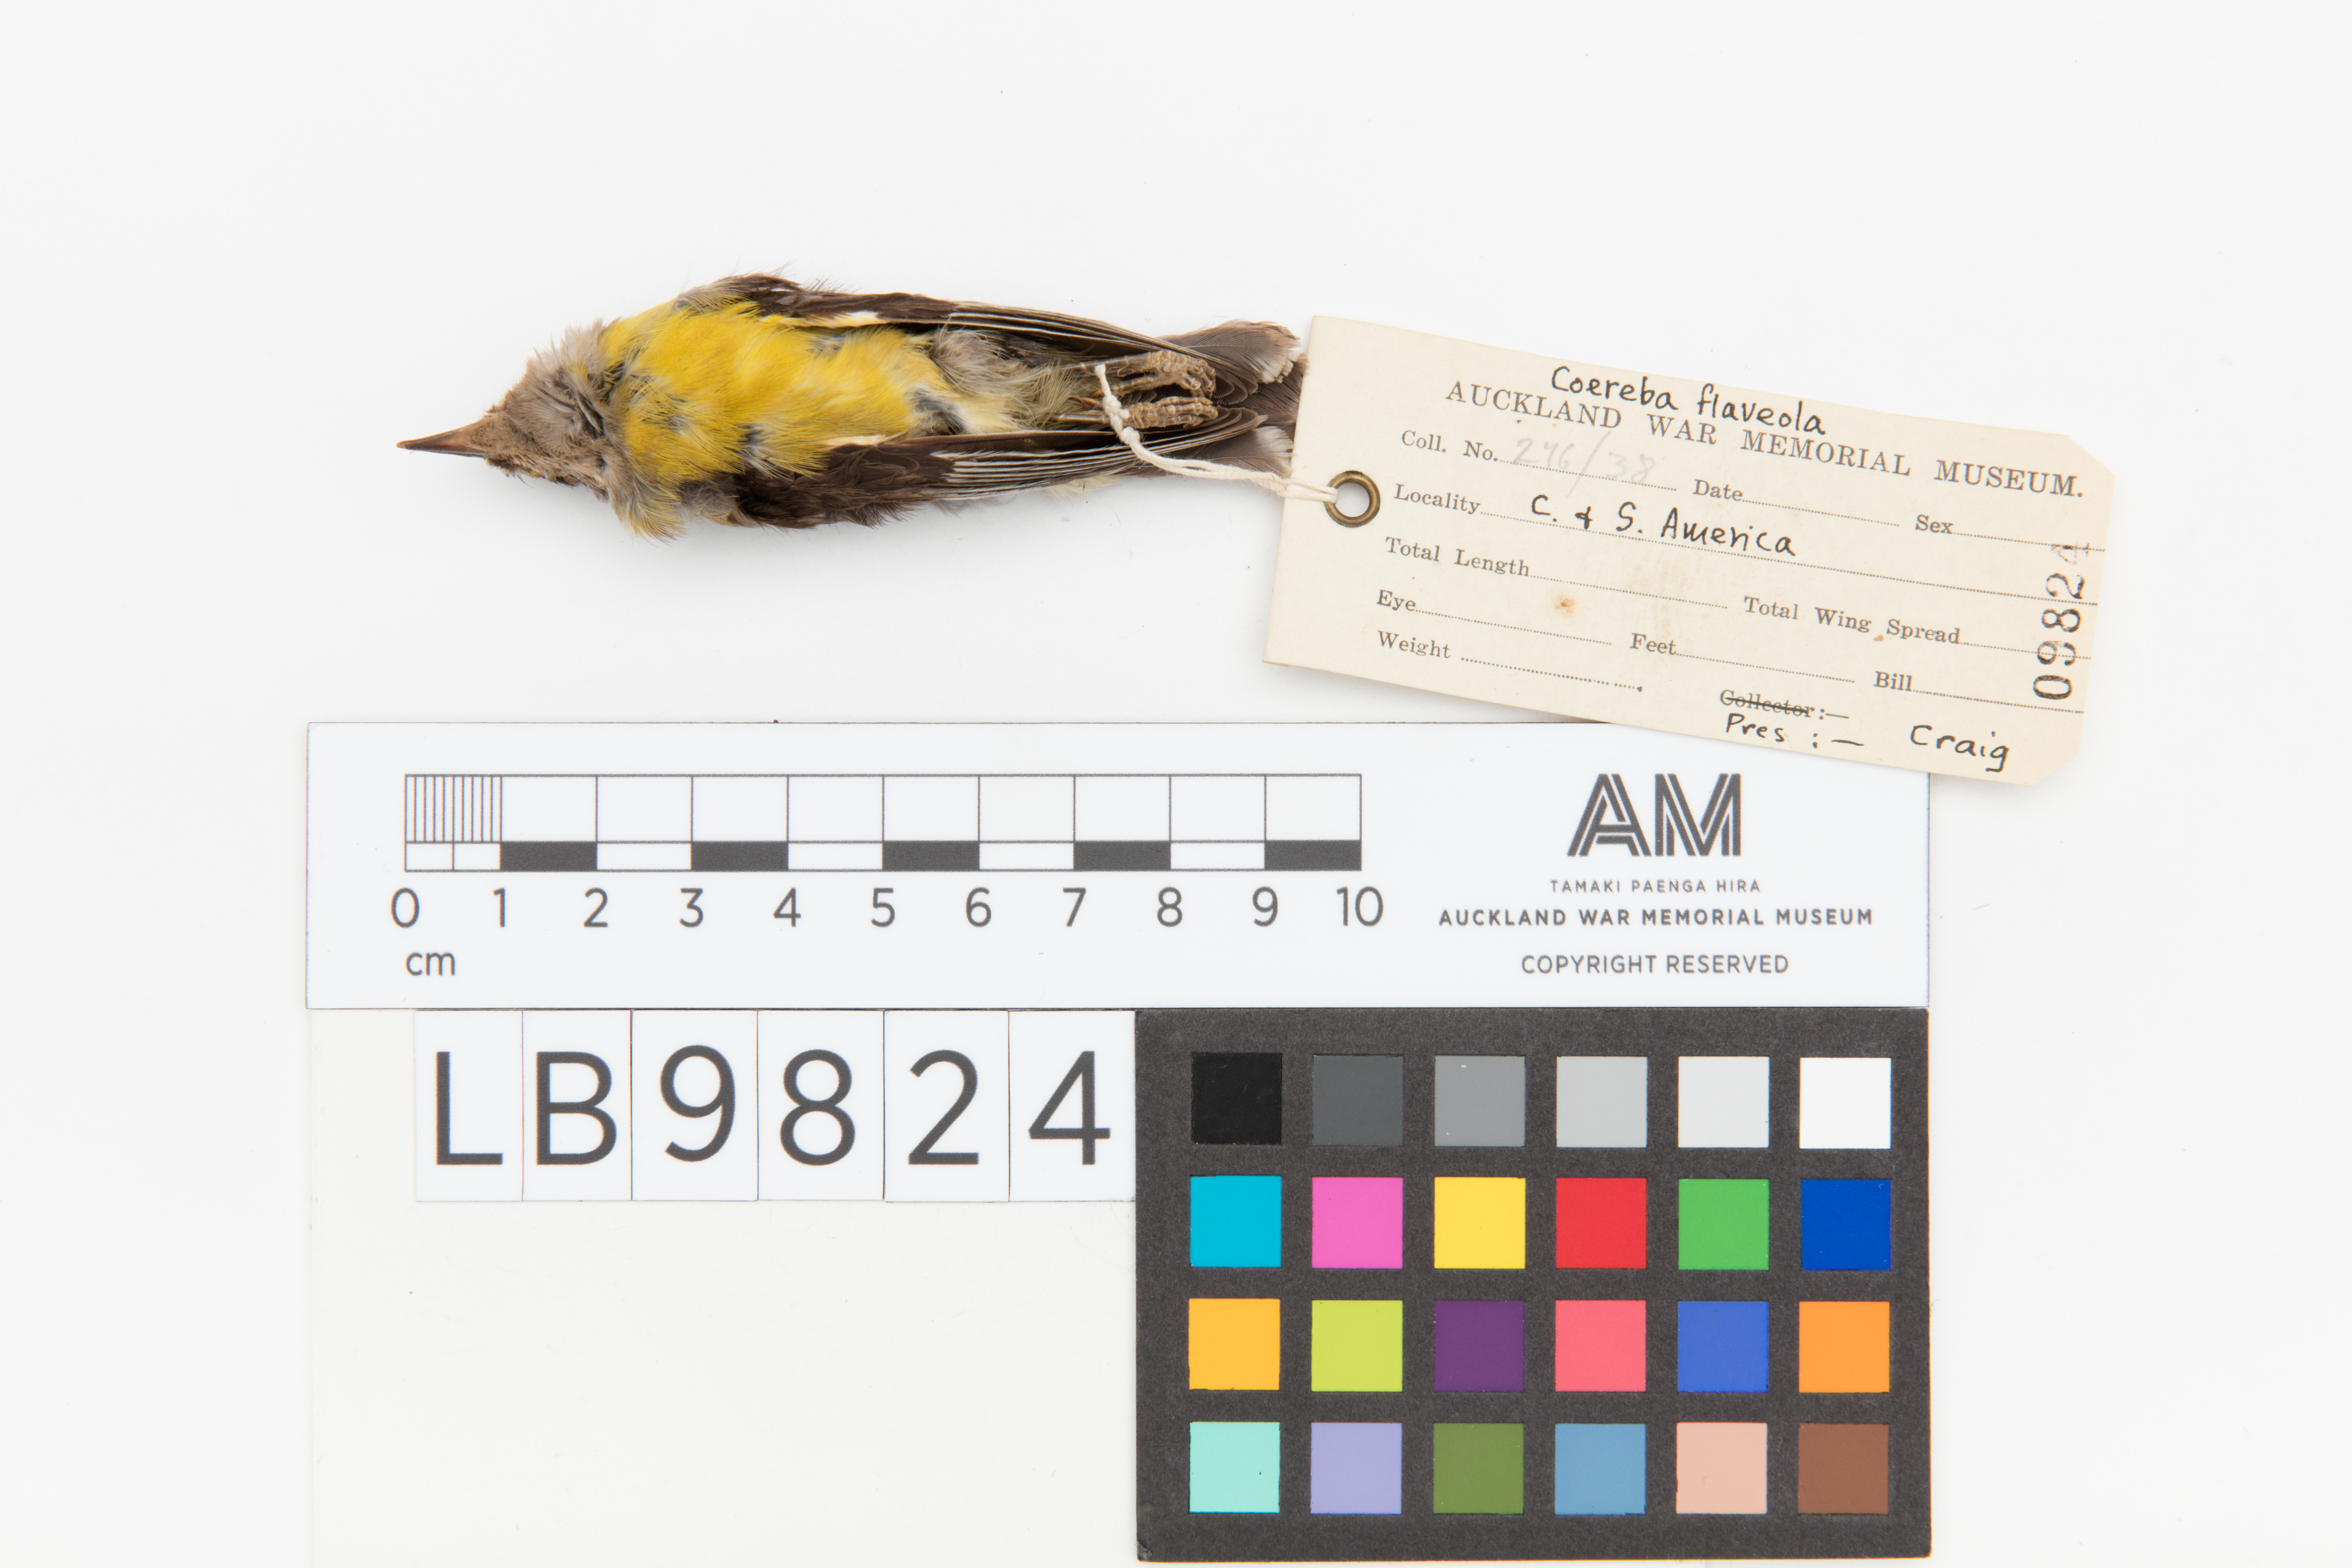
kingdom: Animalia
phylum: Chordata
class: Aves
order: Passeriformes
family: Thraupidae
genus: Coereba
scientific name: Coereba flaveola
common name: Bananaquit
